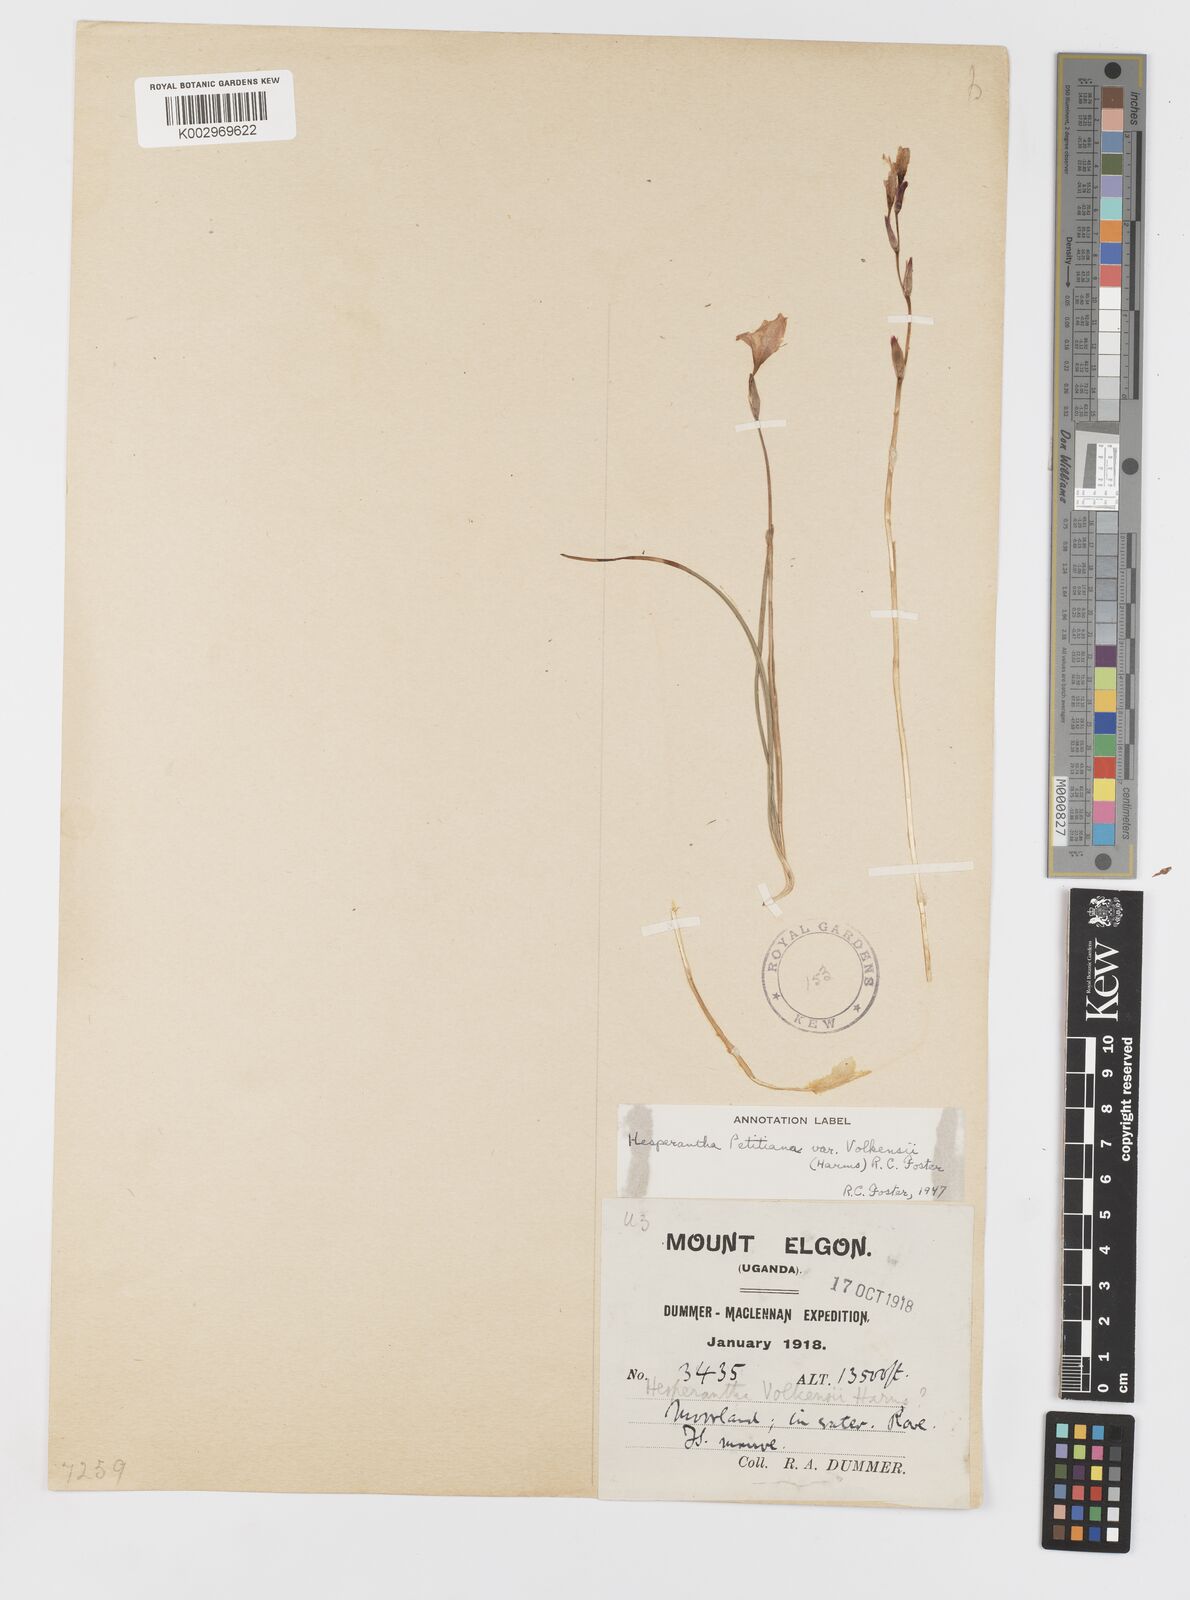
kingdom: Plantae
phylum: Tracheophyta
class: Liliopsida
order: Asparagales
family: Iridaceae
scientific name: Iridaceae
